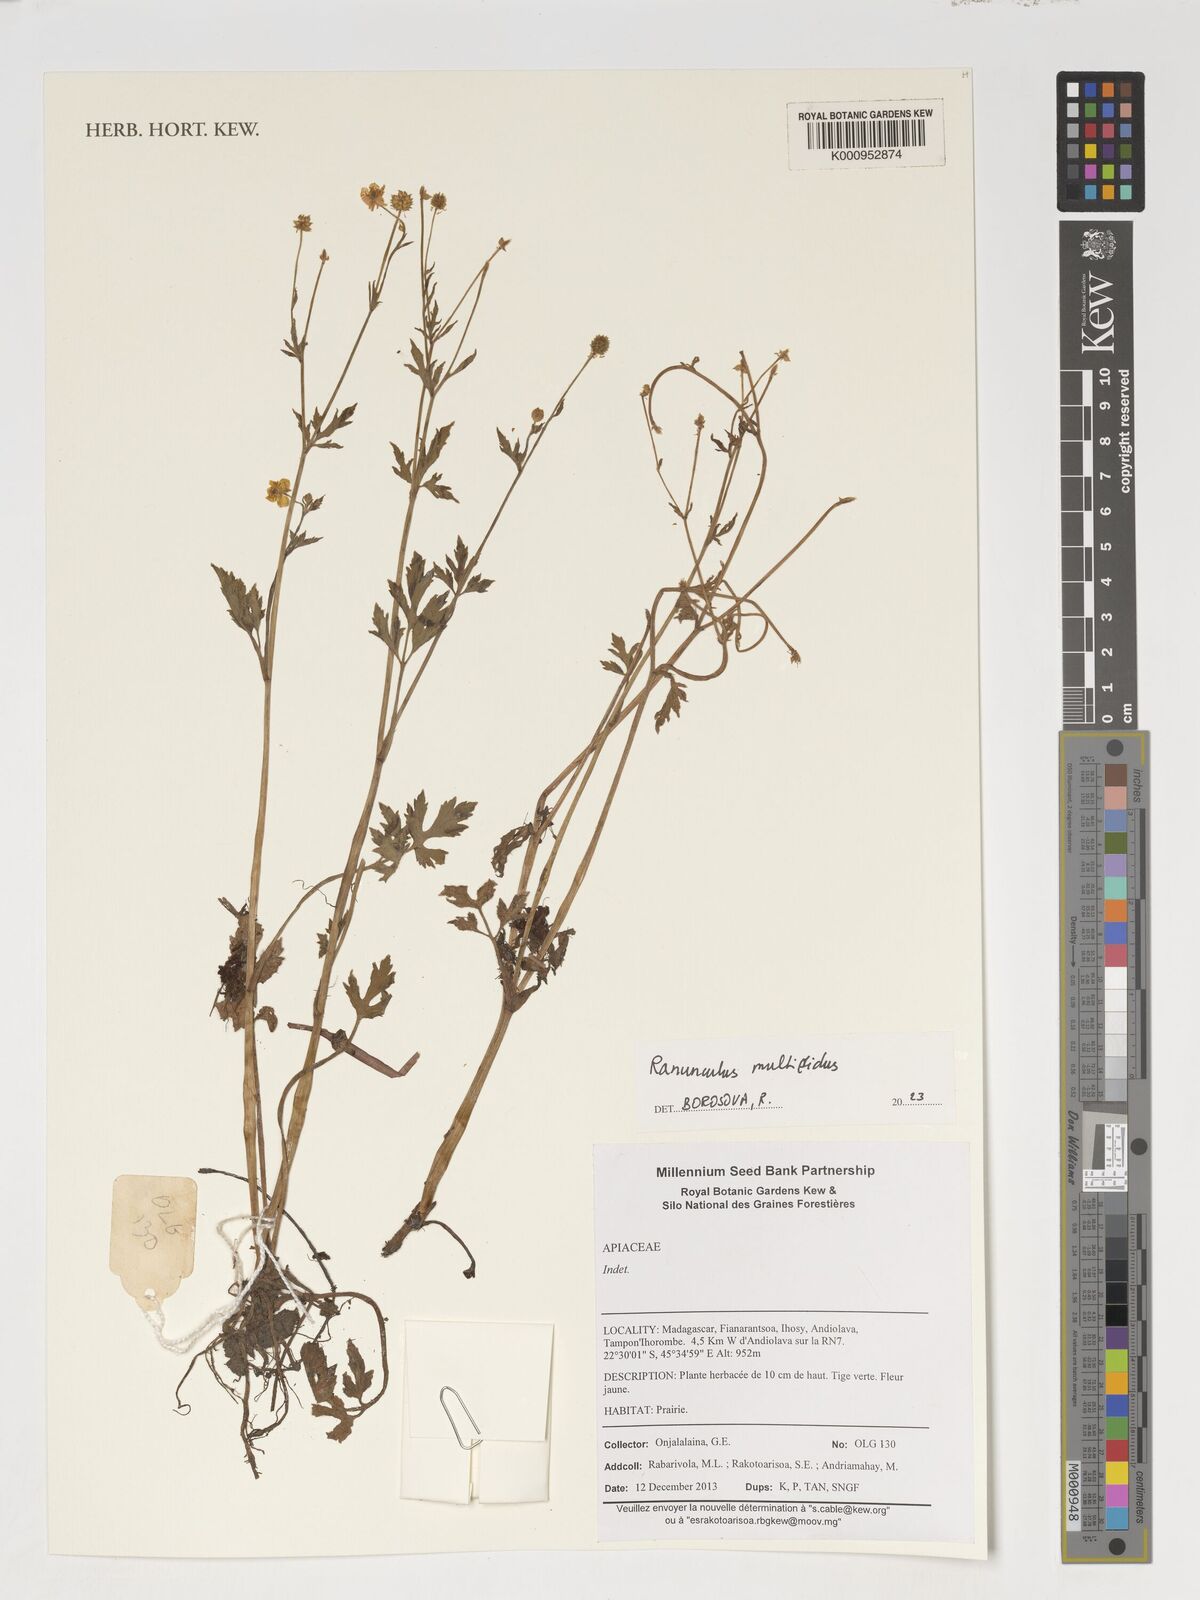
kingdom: Plantae
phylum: Tracheophyta
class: Magnoliopsida
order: Ranunculales
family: Ranunculaceae
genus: Ranunculus
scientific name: Ranunculus hyperboreus
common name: Arctic buttercup
